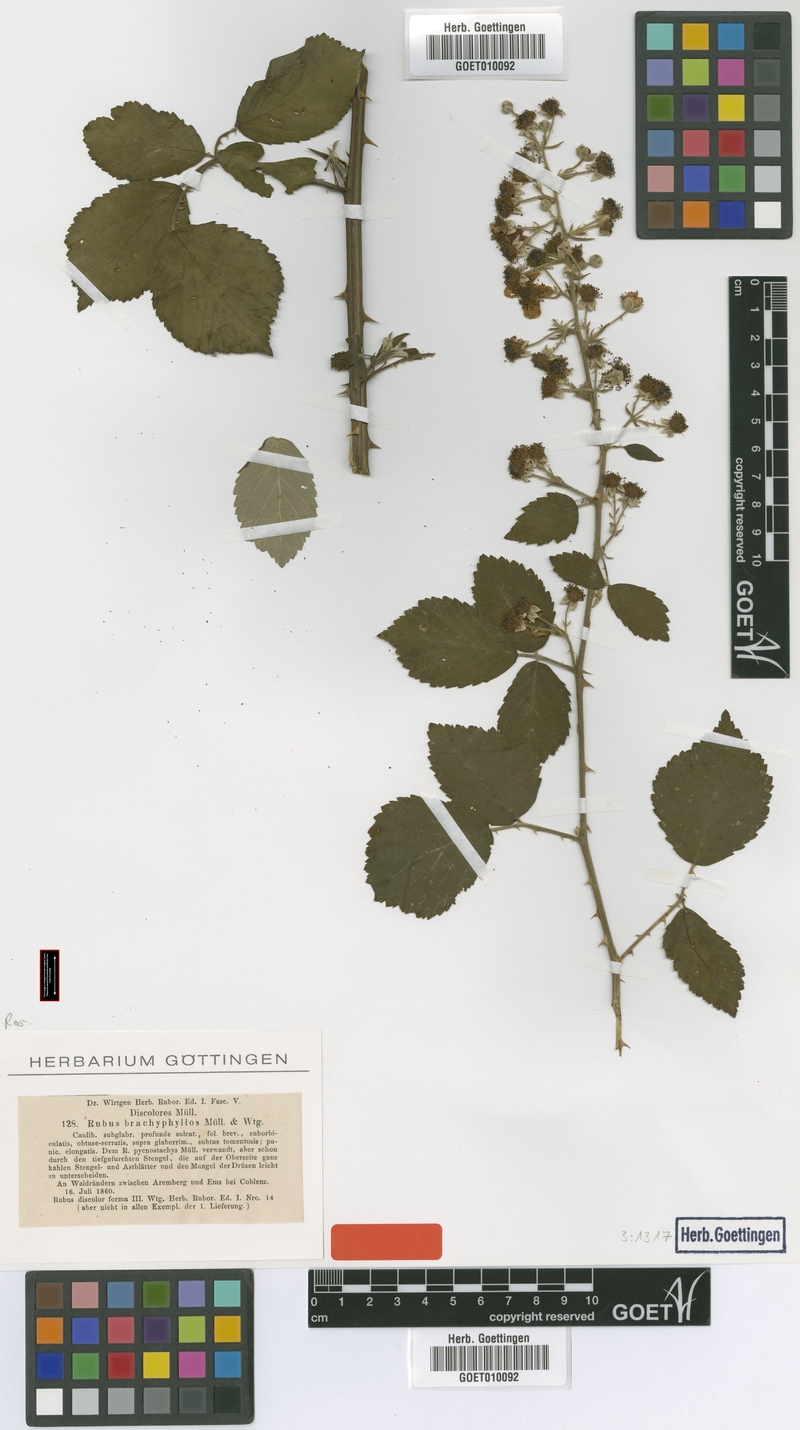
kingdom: Plantae
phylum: Tracheophyta
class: Magnoliopsida
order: Rosales
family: Rosaceae
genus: Rubus
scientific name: Rubus arduennensis
